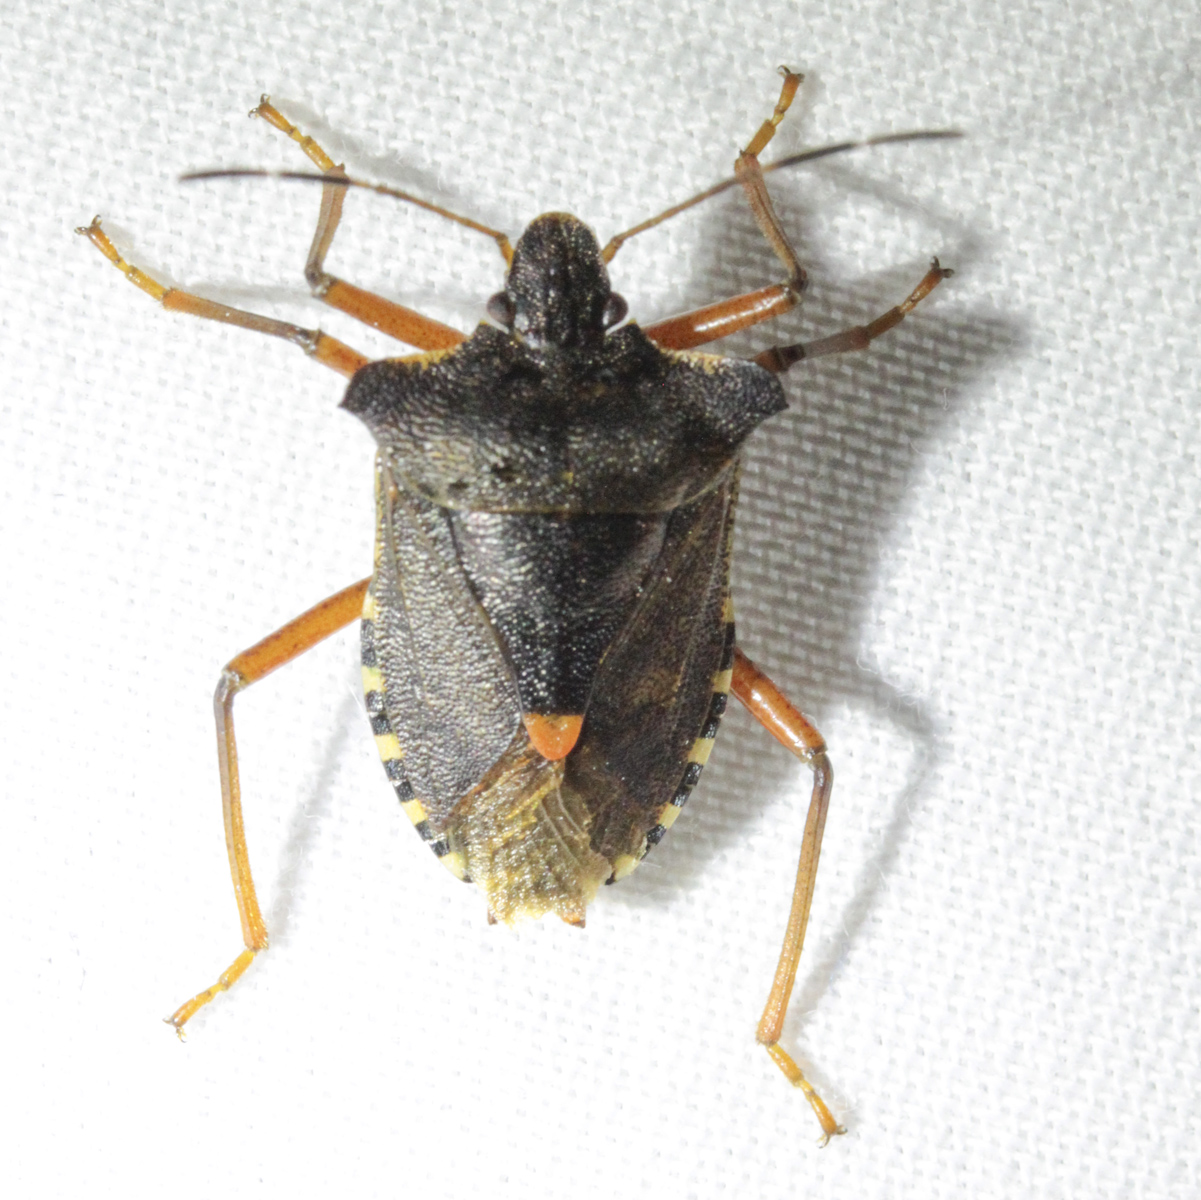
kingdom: Animalia
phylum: Arthropoda
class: Insecta
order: Hemiptera
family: Pentatomidae
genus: Pentatoma
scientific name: Pentatoma rufipes
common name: Forest bug
